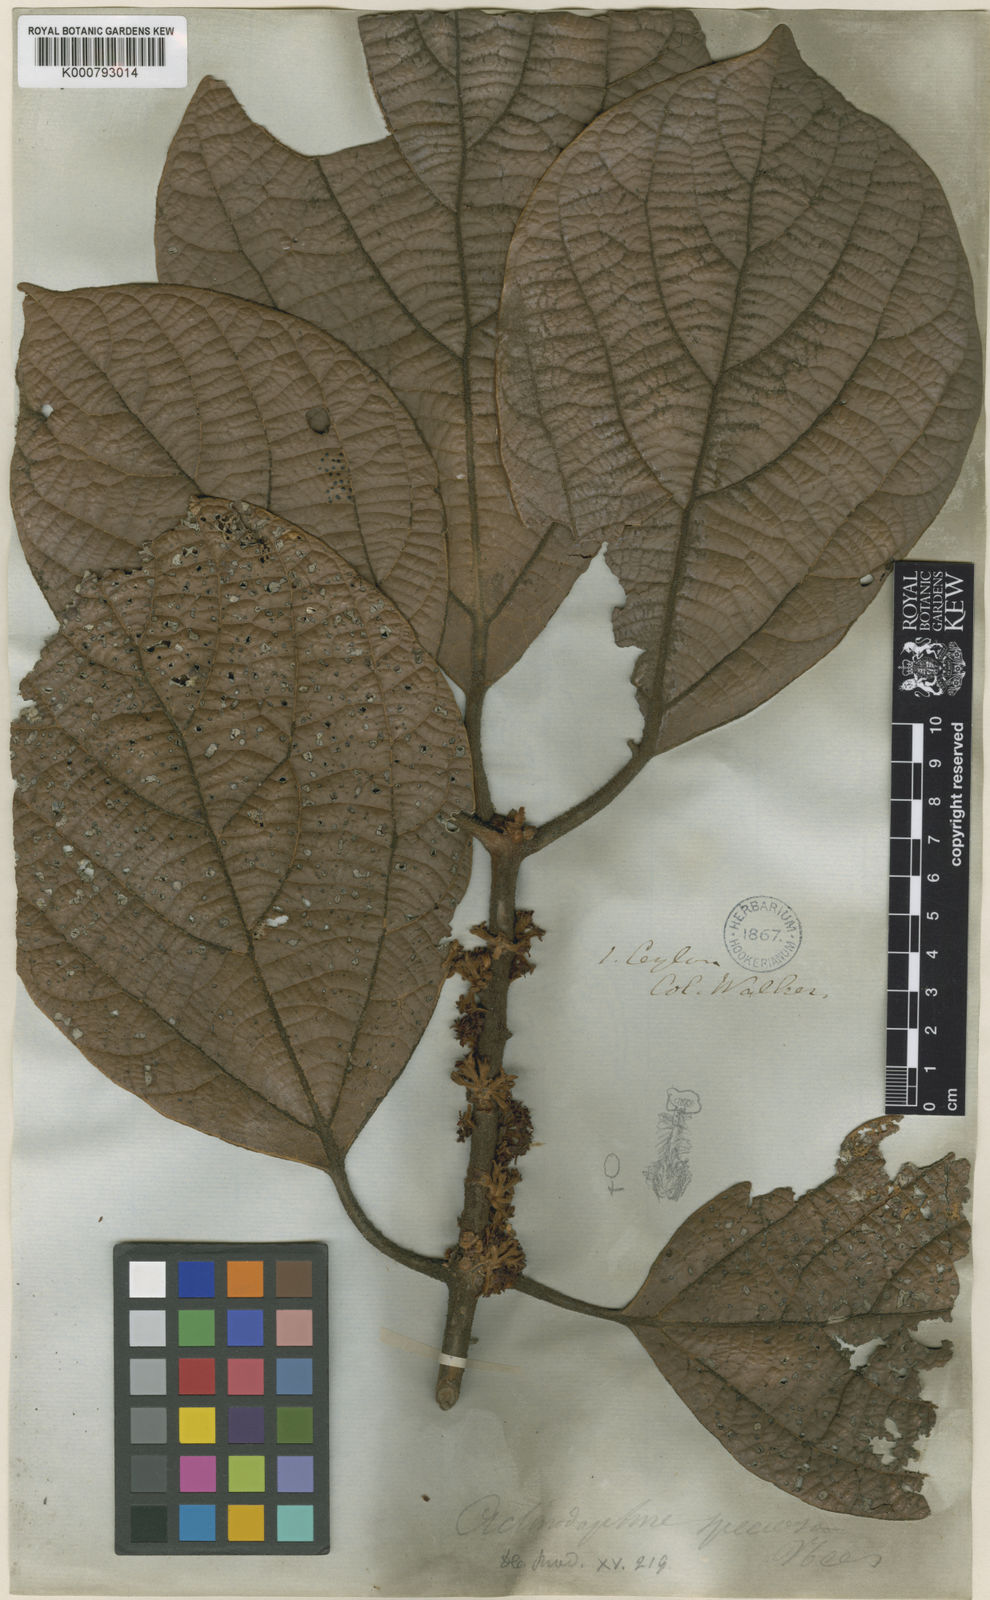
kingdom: Plantae
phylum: Tracheophyta
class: Magnoliopsida
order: Laurales
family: Lauraceae
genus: Actinodaphne
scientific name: Actinodaphne speciosa
